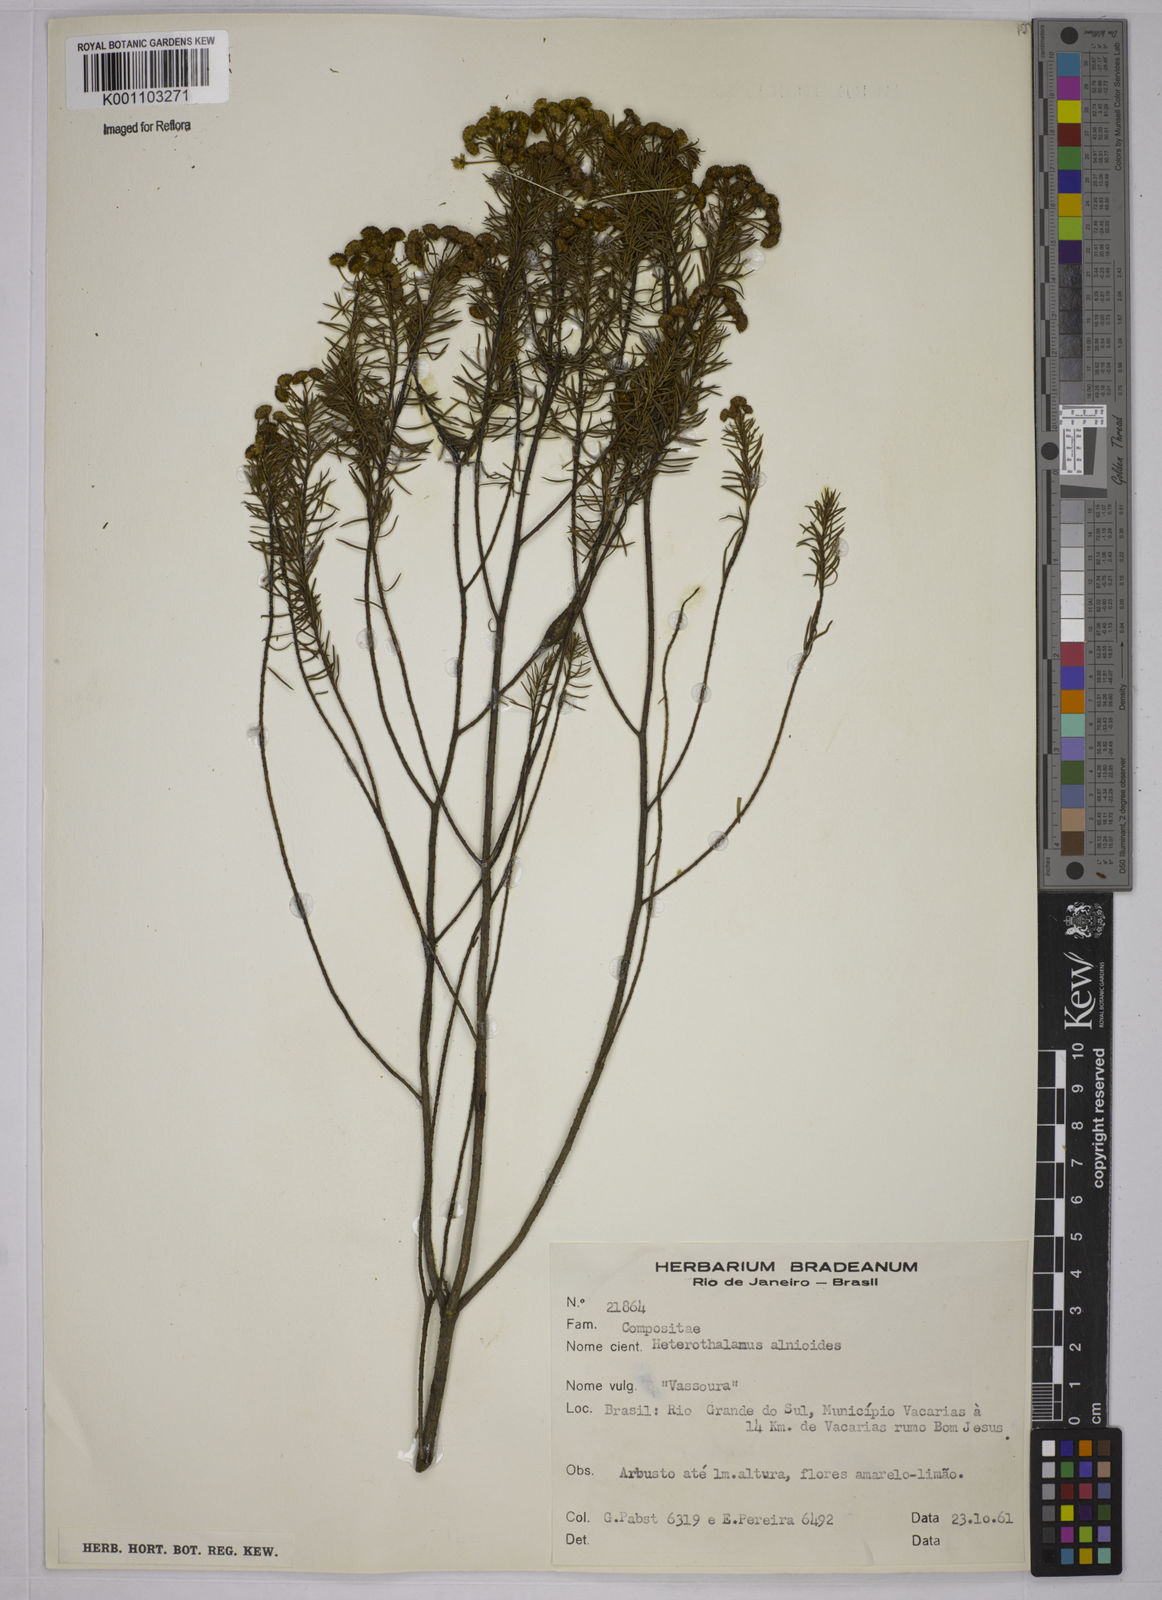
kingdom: Plantae
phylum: Tracheophyta
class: Magnoliopsida
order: Asterales
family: Asteraceae
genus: Baccharis
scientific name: Baccharis
